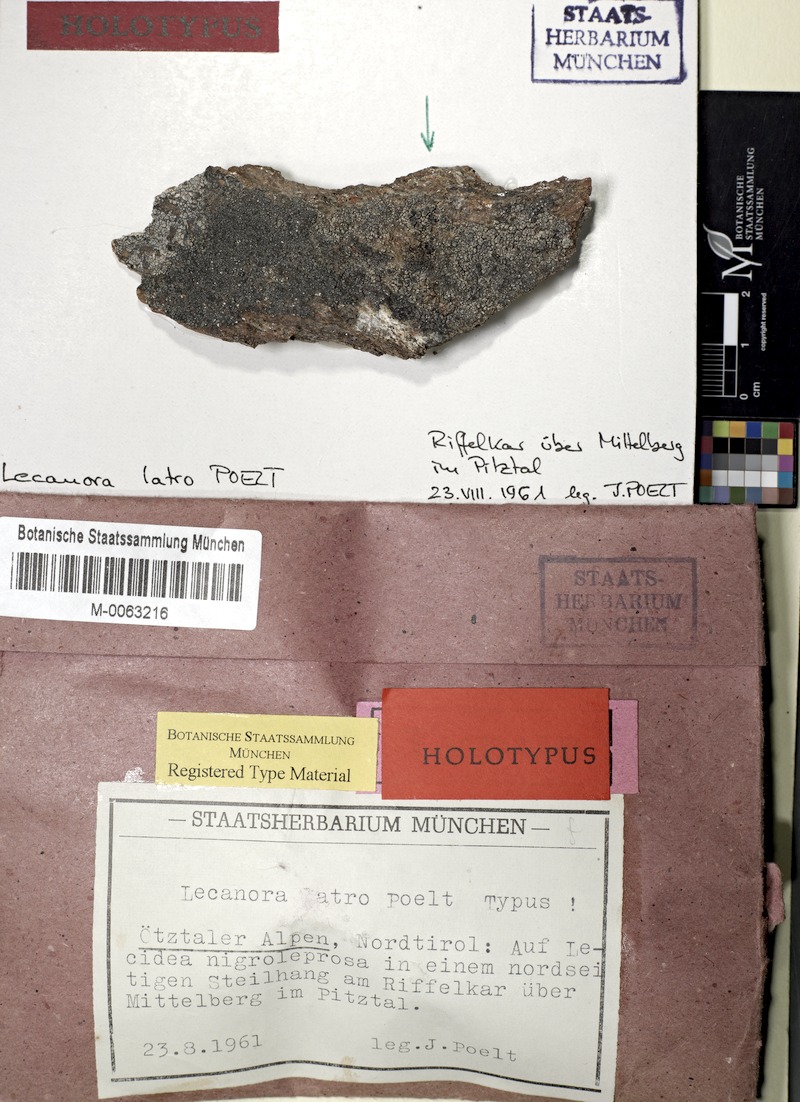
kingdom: Fungi
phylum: Ascomycota
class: Lecanoromycetes
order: Lecanorales
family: Lecanoraceae
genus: Lecanora
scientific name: Lecanora latro
